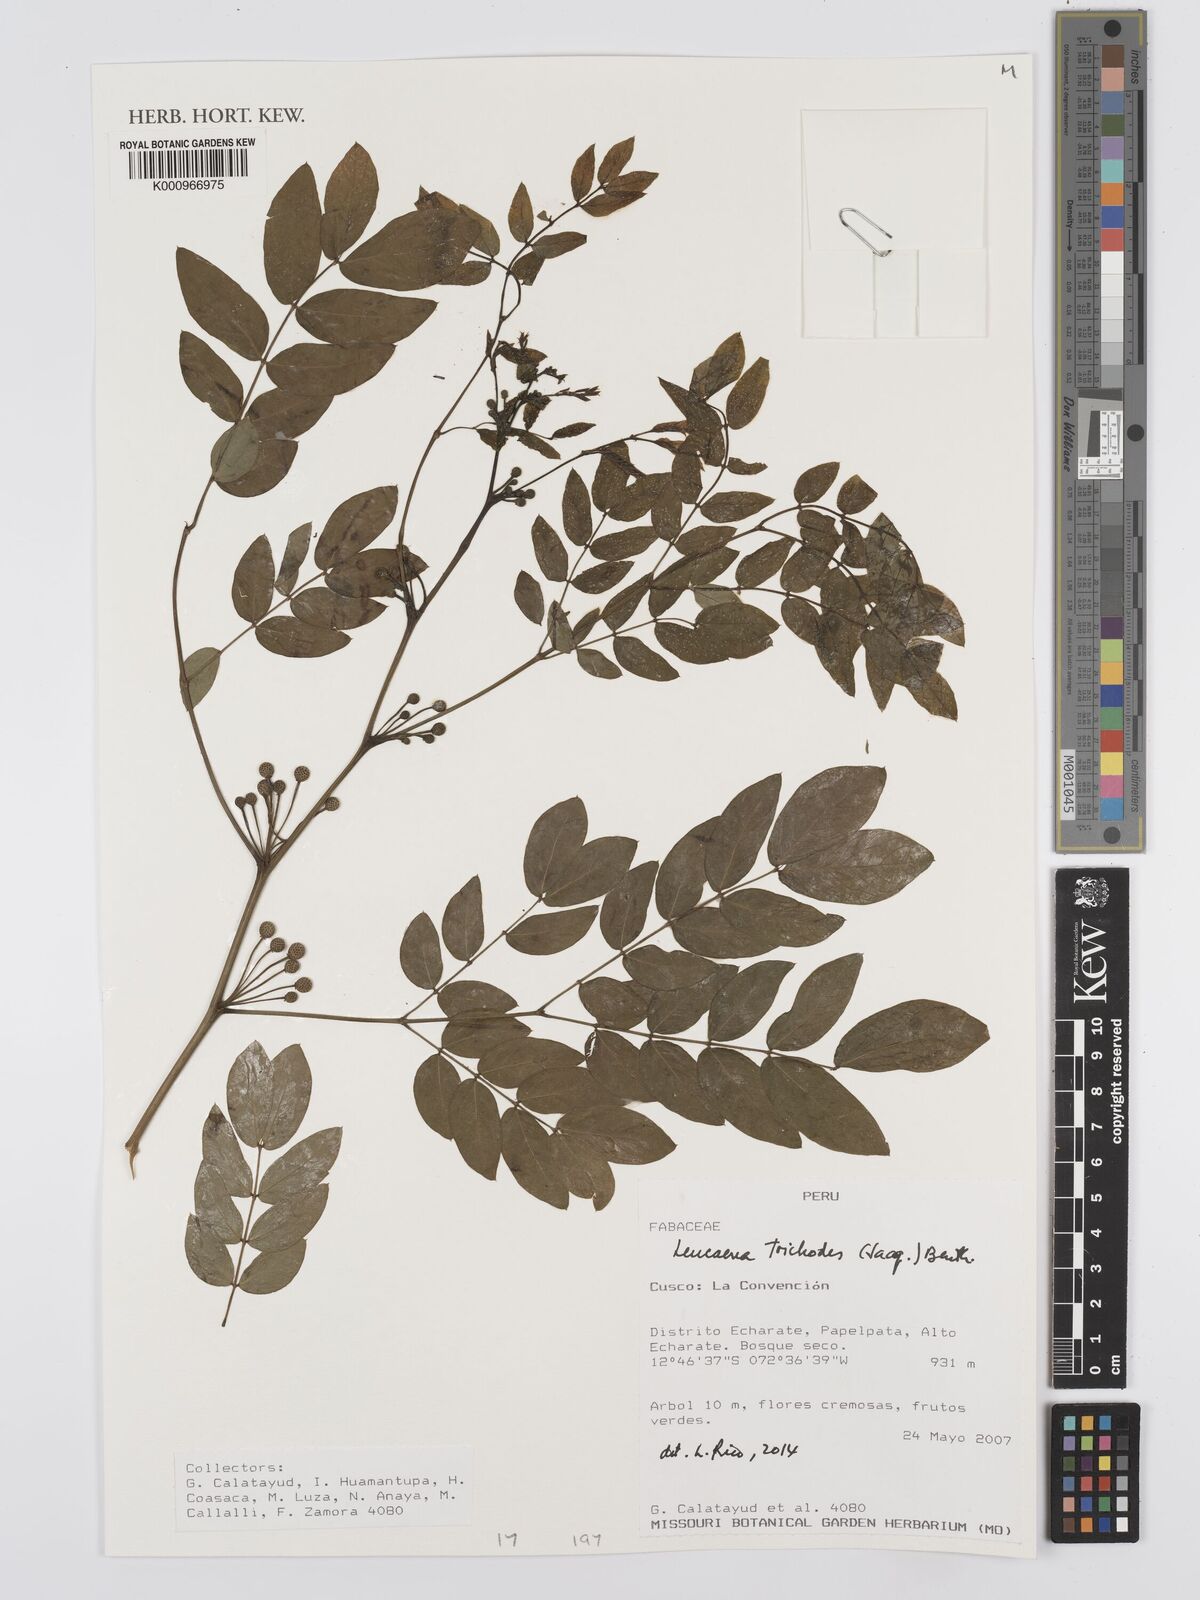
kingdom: Plantae
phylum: Tracheophyta
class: Magnoliopsida
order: Fabales
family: Fabaceae
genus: Leucaena
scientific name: Leucaena trichodes
